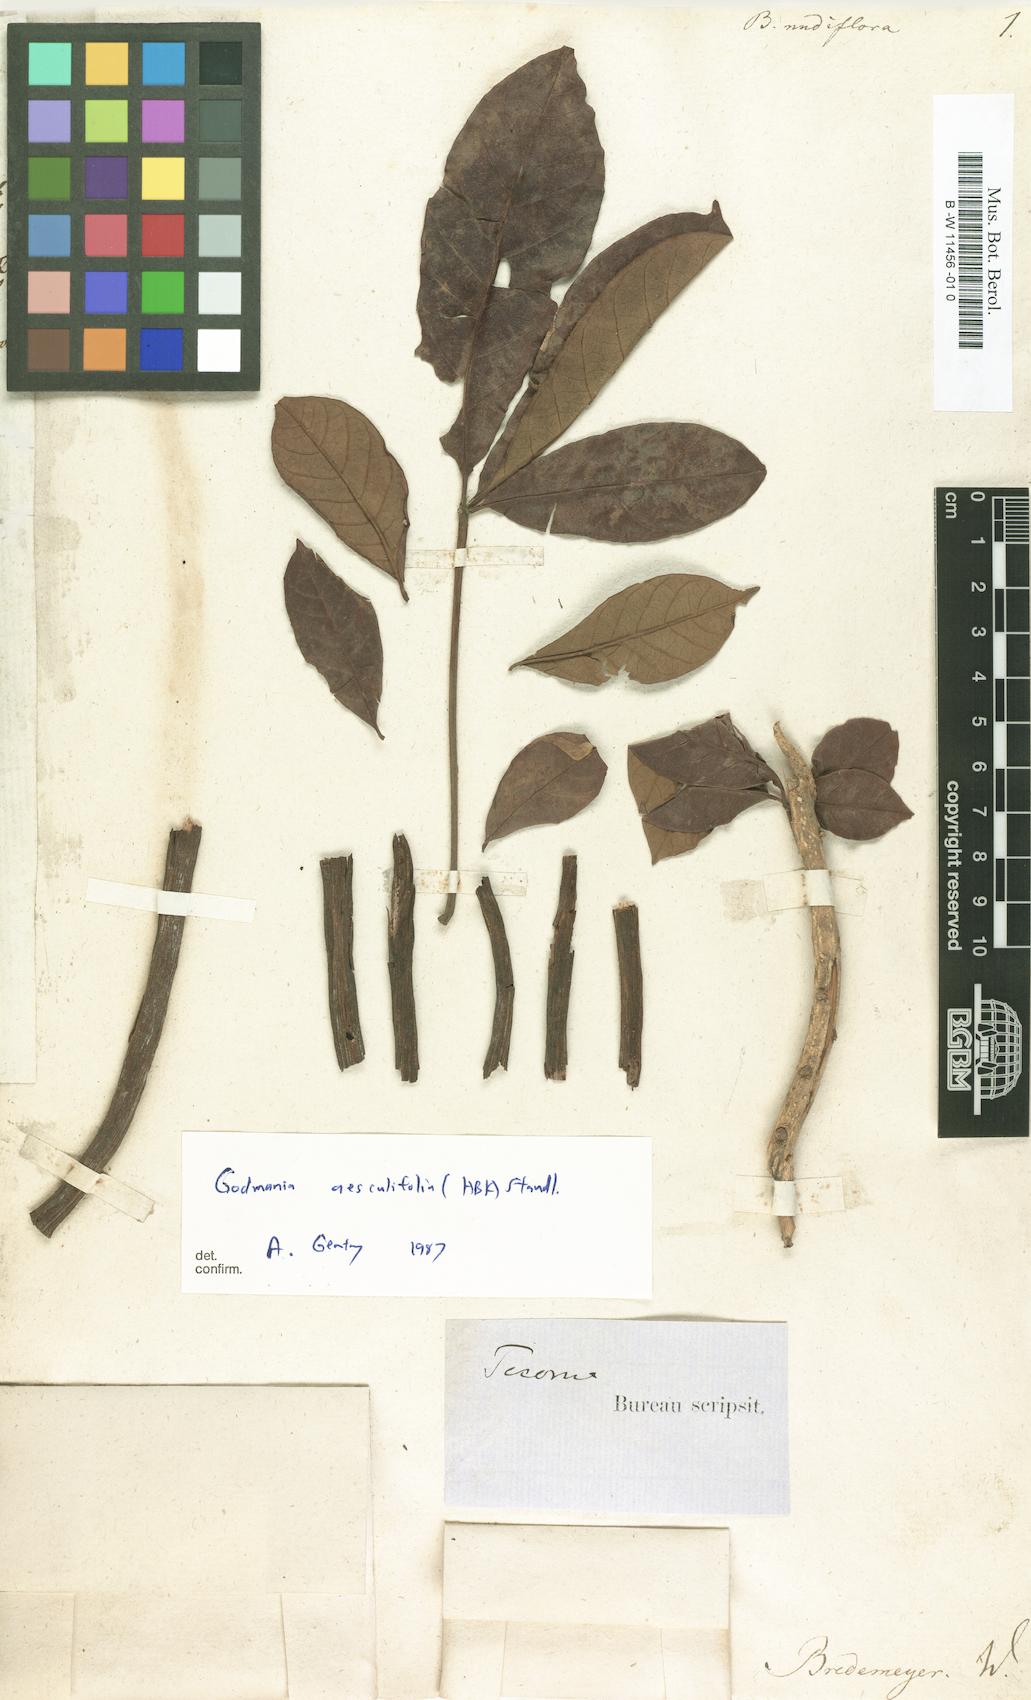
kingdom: Plantae
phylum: Tracheophyta
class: Magnoliopsida
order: Lamiales
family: Bignoniaceae
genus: Bignonia
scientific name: Bignonia
